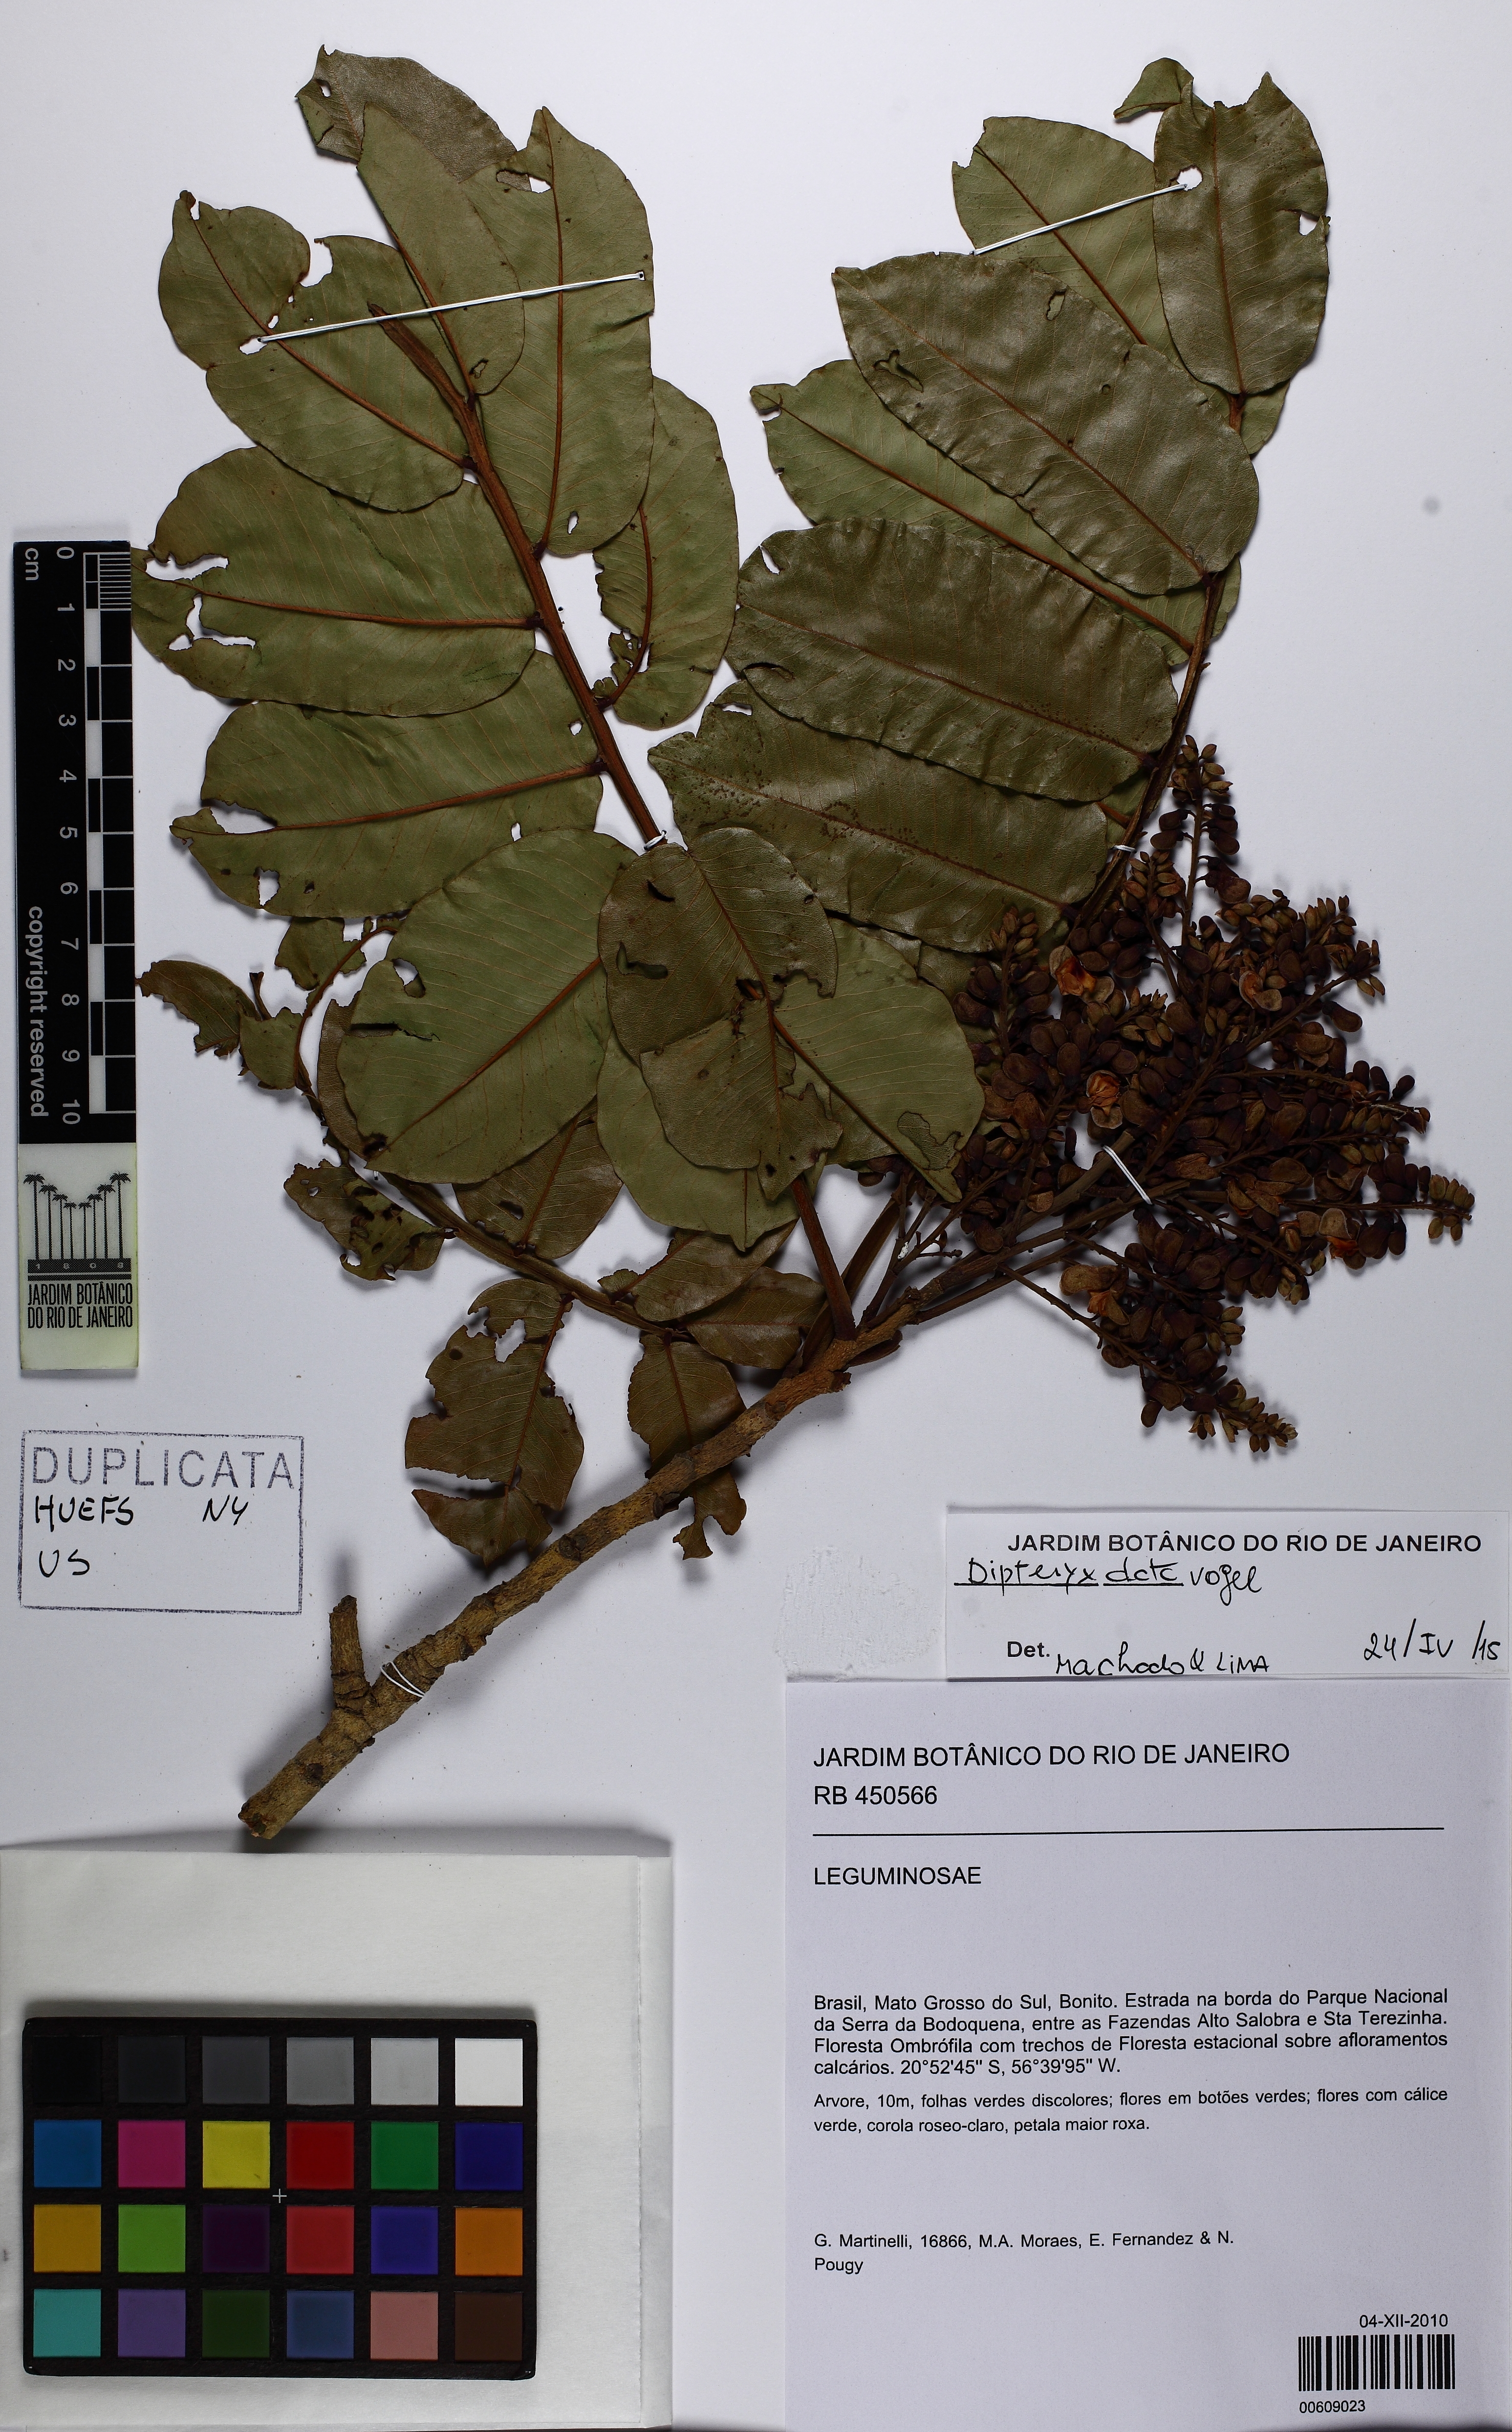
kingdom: Plantae
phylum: Tracheophyta
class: Magnoliopsida
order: Fabales
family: Fabaceae
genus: Dipteryx
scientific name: Dipteryx alata
